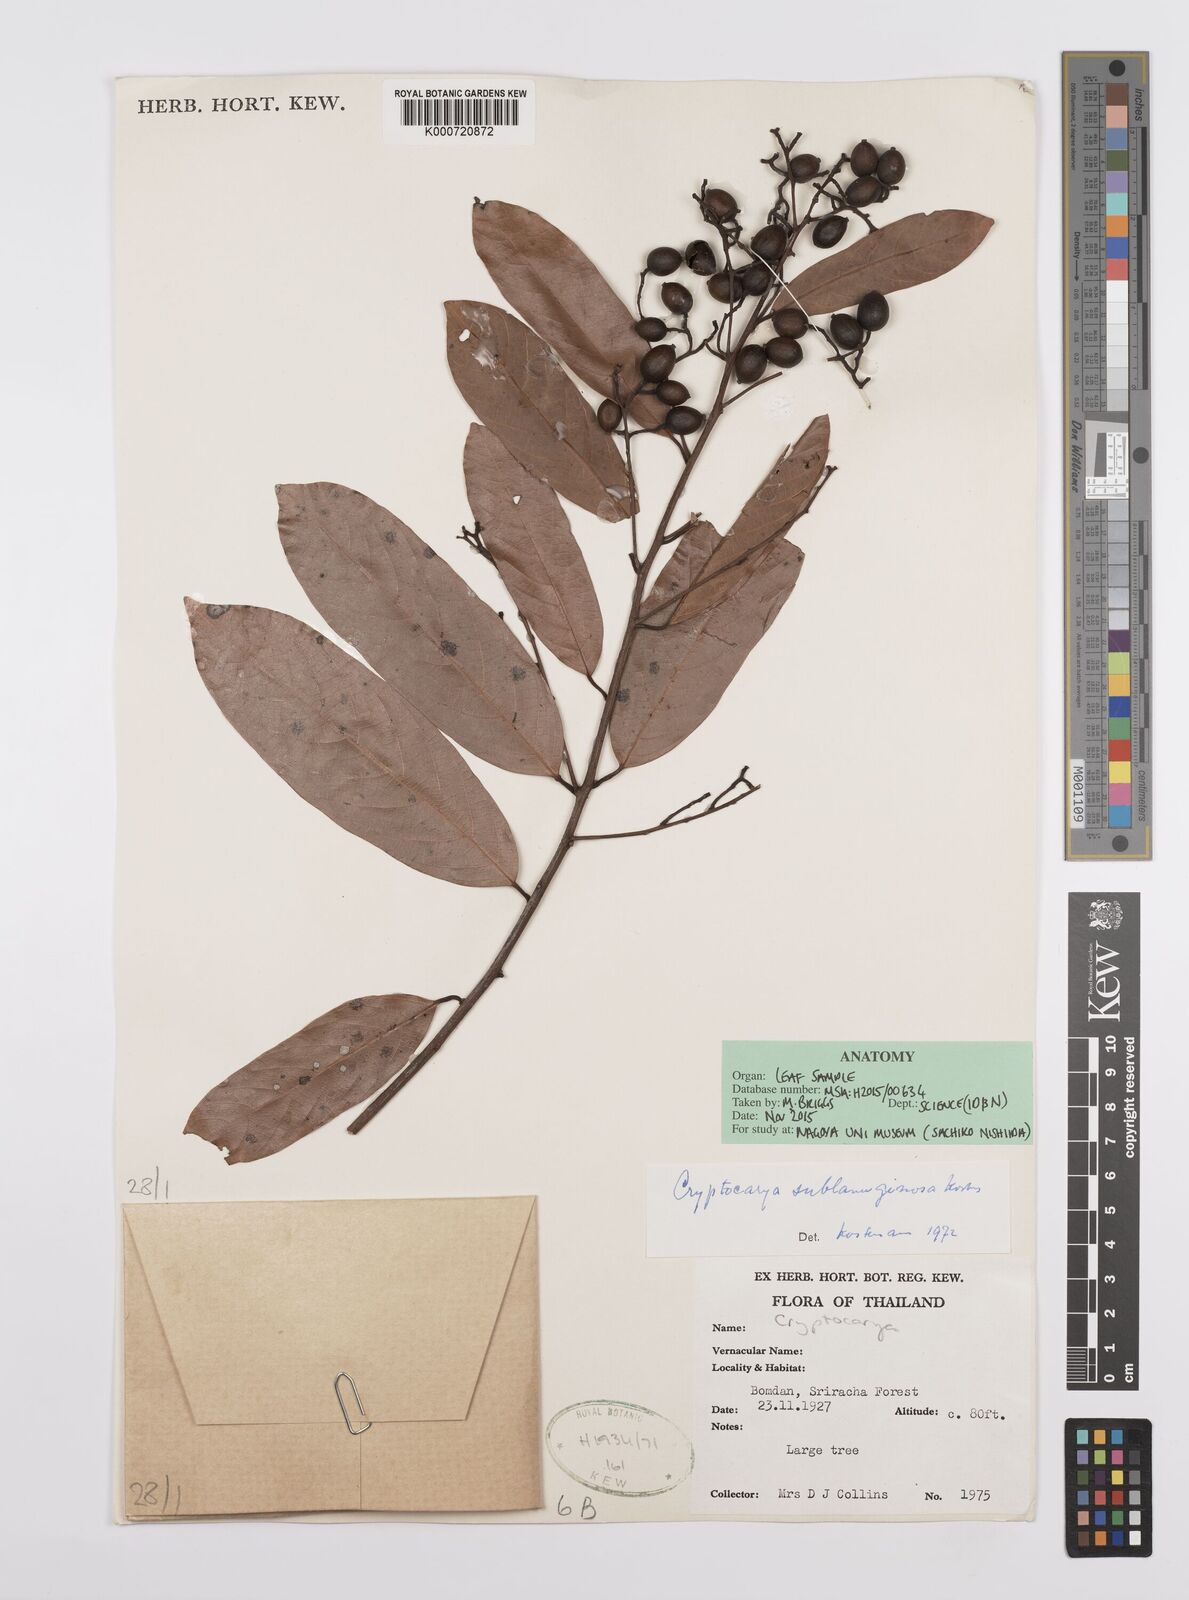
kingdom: Plantae
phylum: Tracheophyta
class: Magnoliopsida
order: Laurales
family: Lauraceae
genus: Cryptocarya
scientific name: Cryptocarya sublanuginosa
